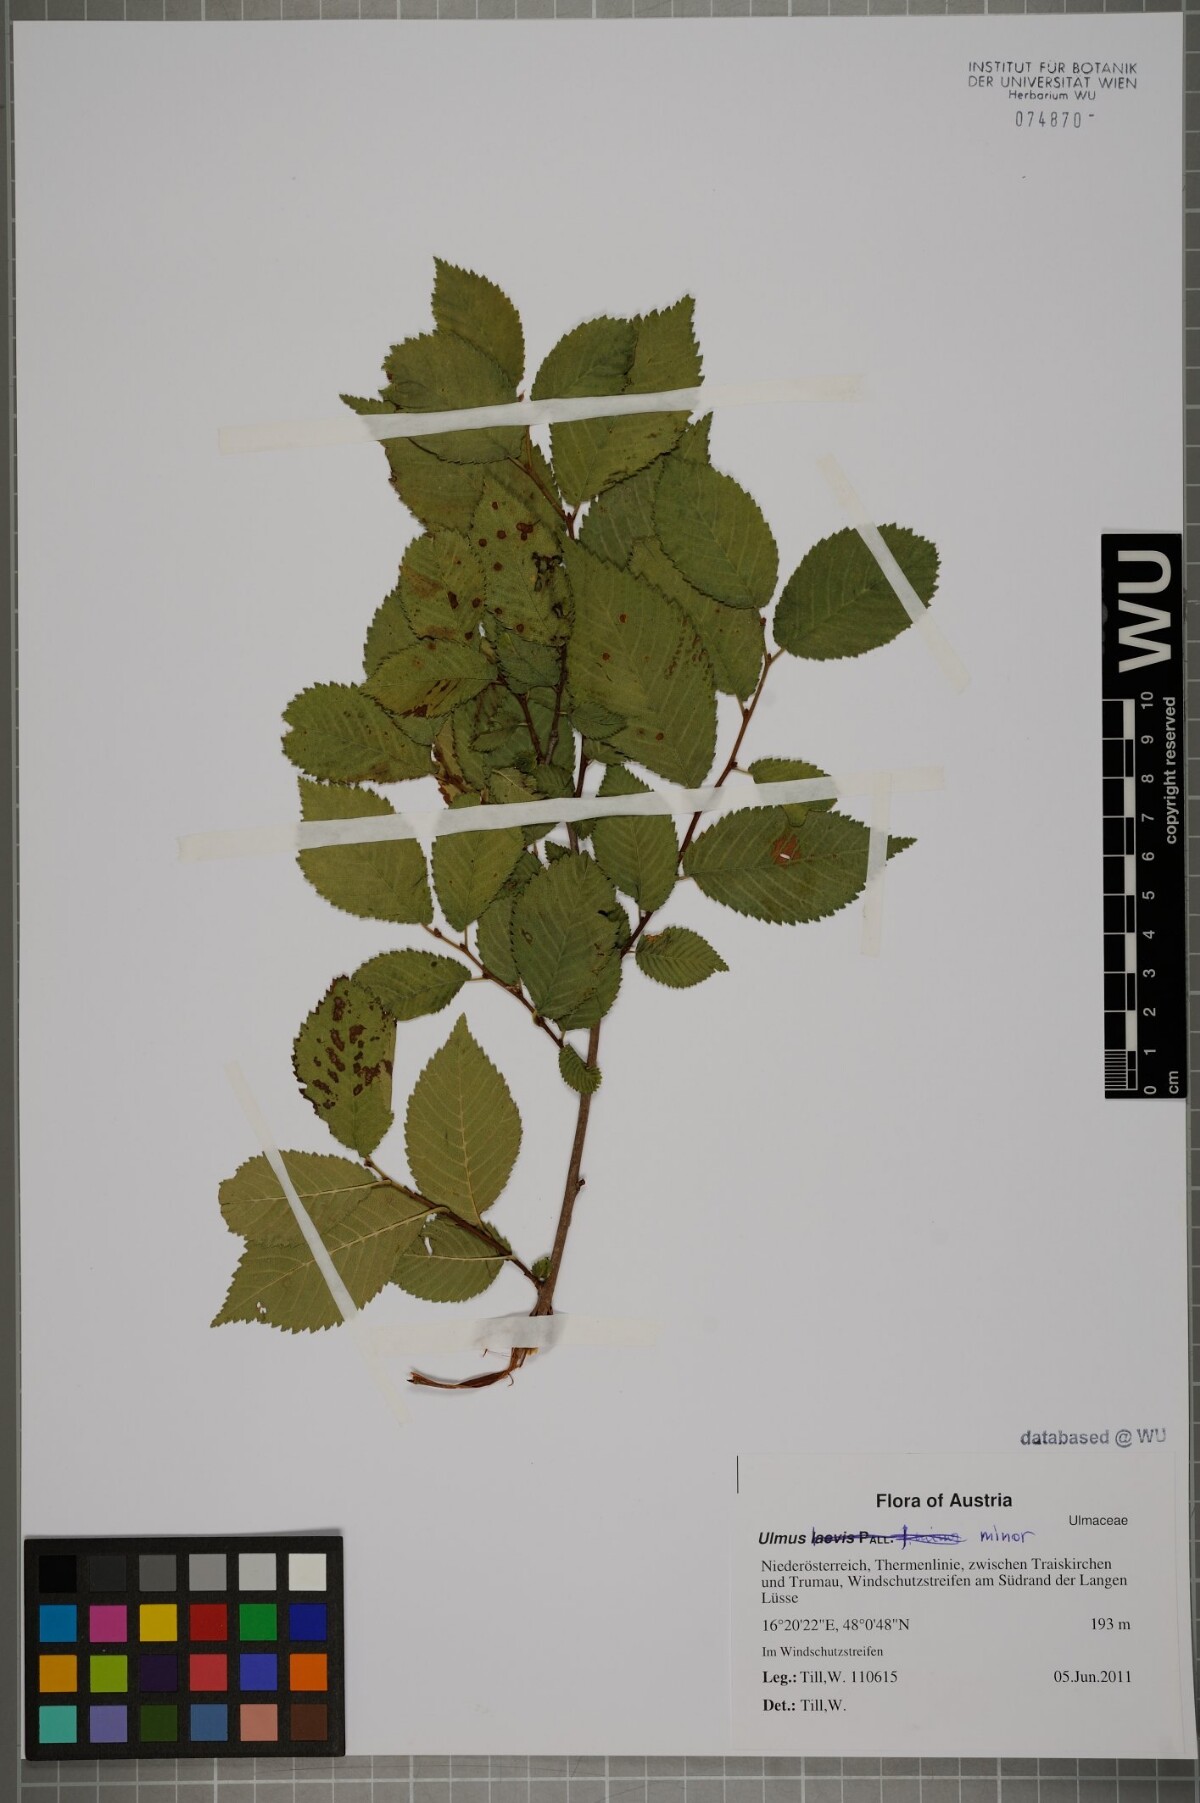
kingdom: Plantae
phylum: Tracheophyta
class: Magnoliopsida
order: Rosales
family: Ulmaceae
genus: Ulmus
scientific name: Ulmus minor
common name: Small-leaved elm
